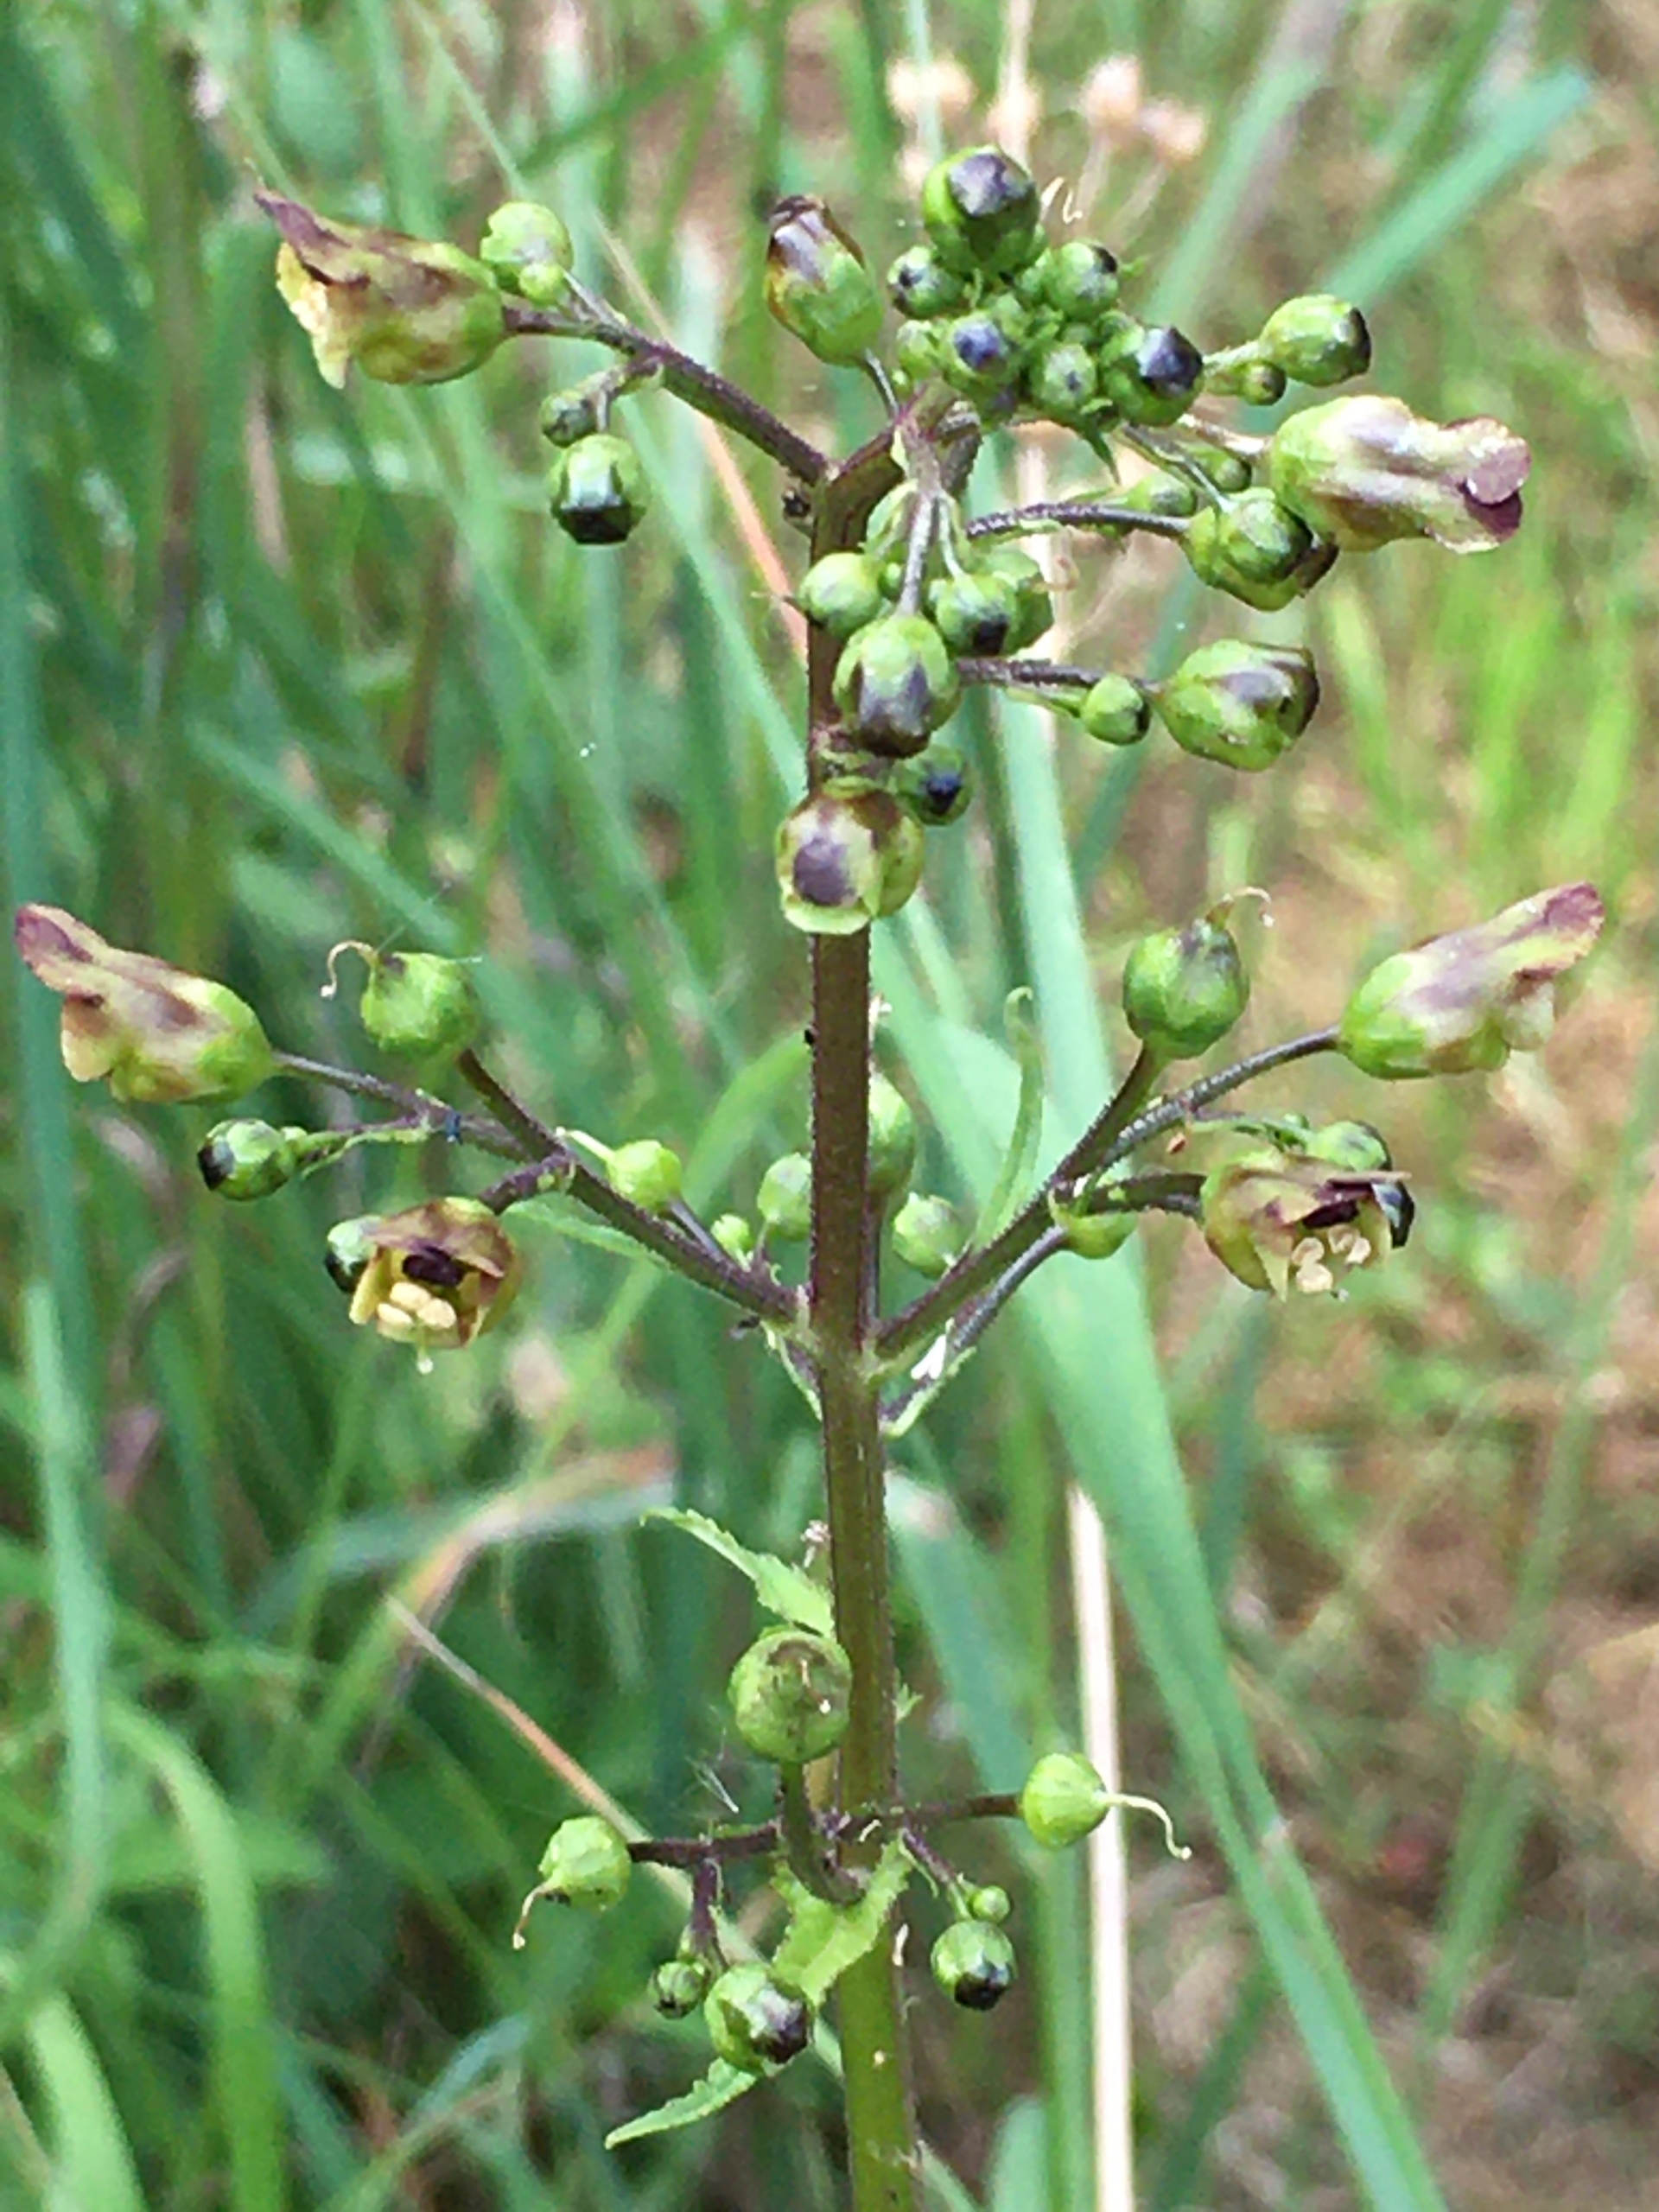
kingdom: Plantae
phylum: Tracheophyta
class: Magnoliopsida
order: Lamiales
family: Scrophulariaceae
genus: Scrophularia
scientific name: Scrophularia nodosa
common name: Knoldet brunrod
